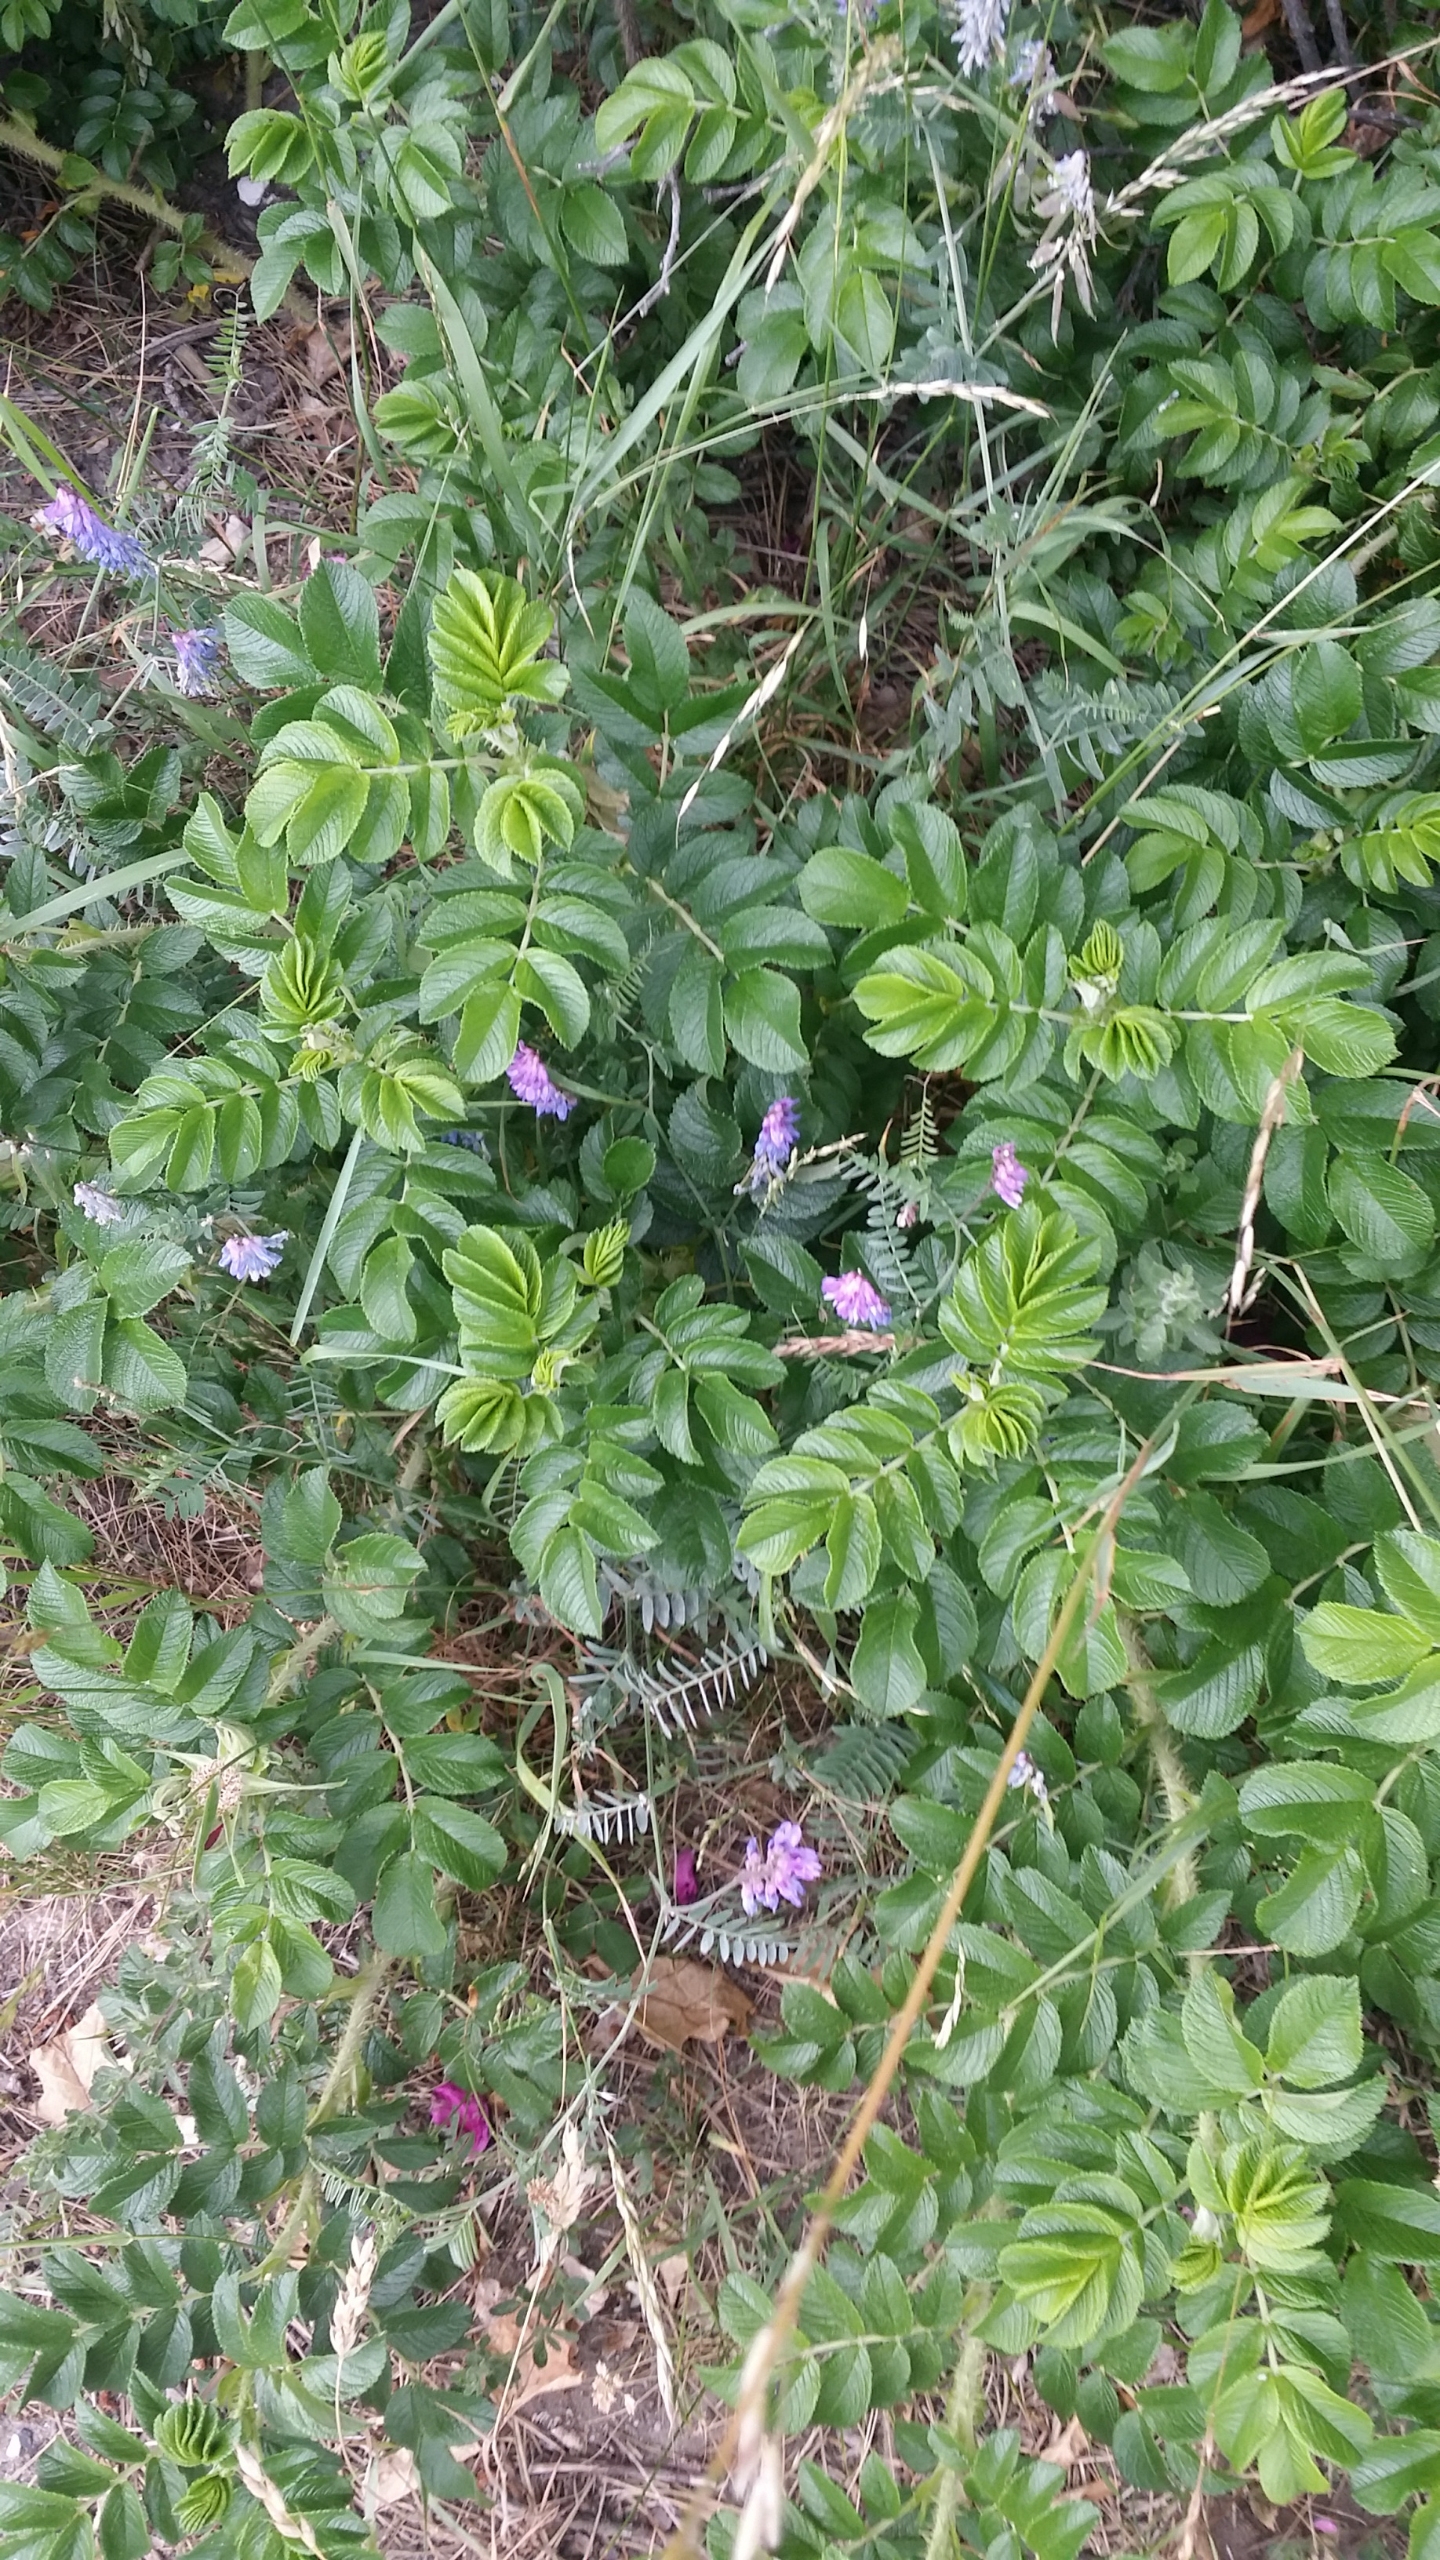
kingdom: Plantae
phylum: Tracheophyta
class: Magnoliopsida
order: Fabales
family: Fabaceae
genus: Vicia
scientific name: Vicia cracca
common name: Muse-vikke
